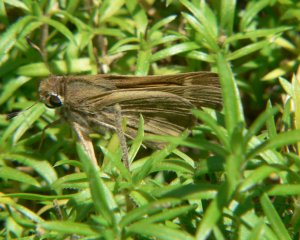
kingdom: Animalia
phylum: Arthropoda
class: Insecta
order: Lepidoptera
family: Hesperiidae
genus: Atalopedes
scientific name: Atalopedes campestris
